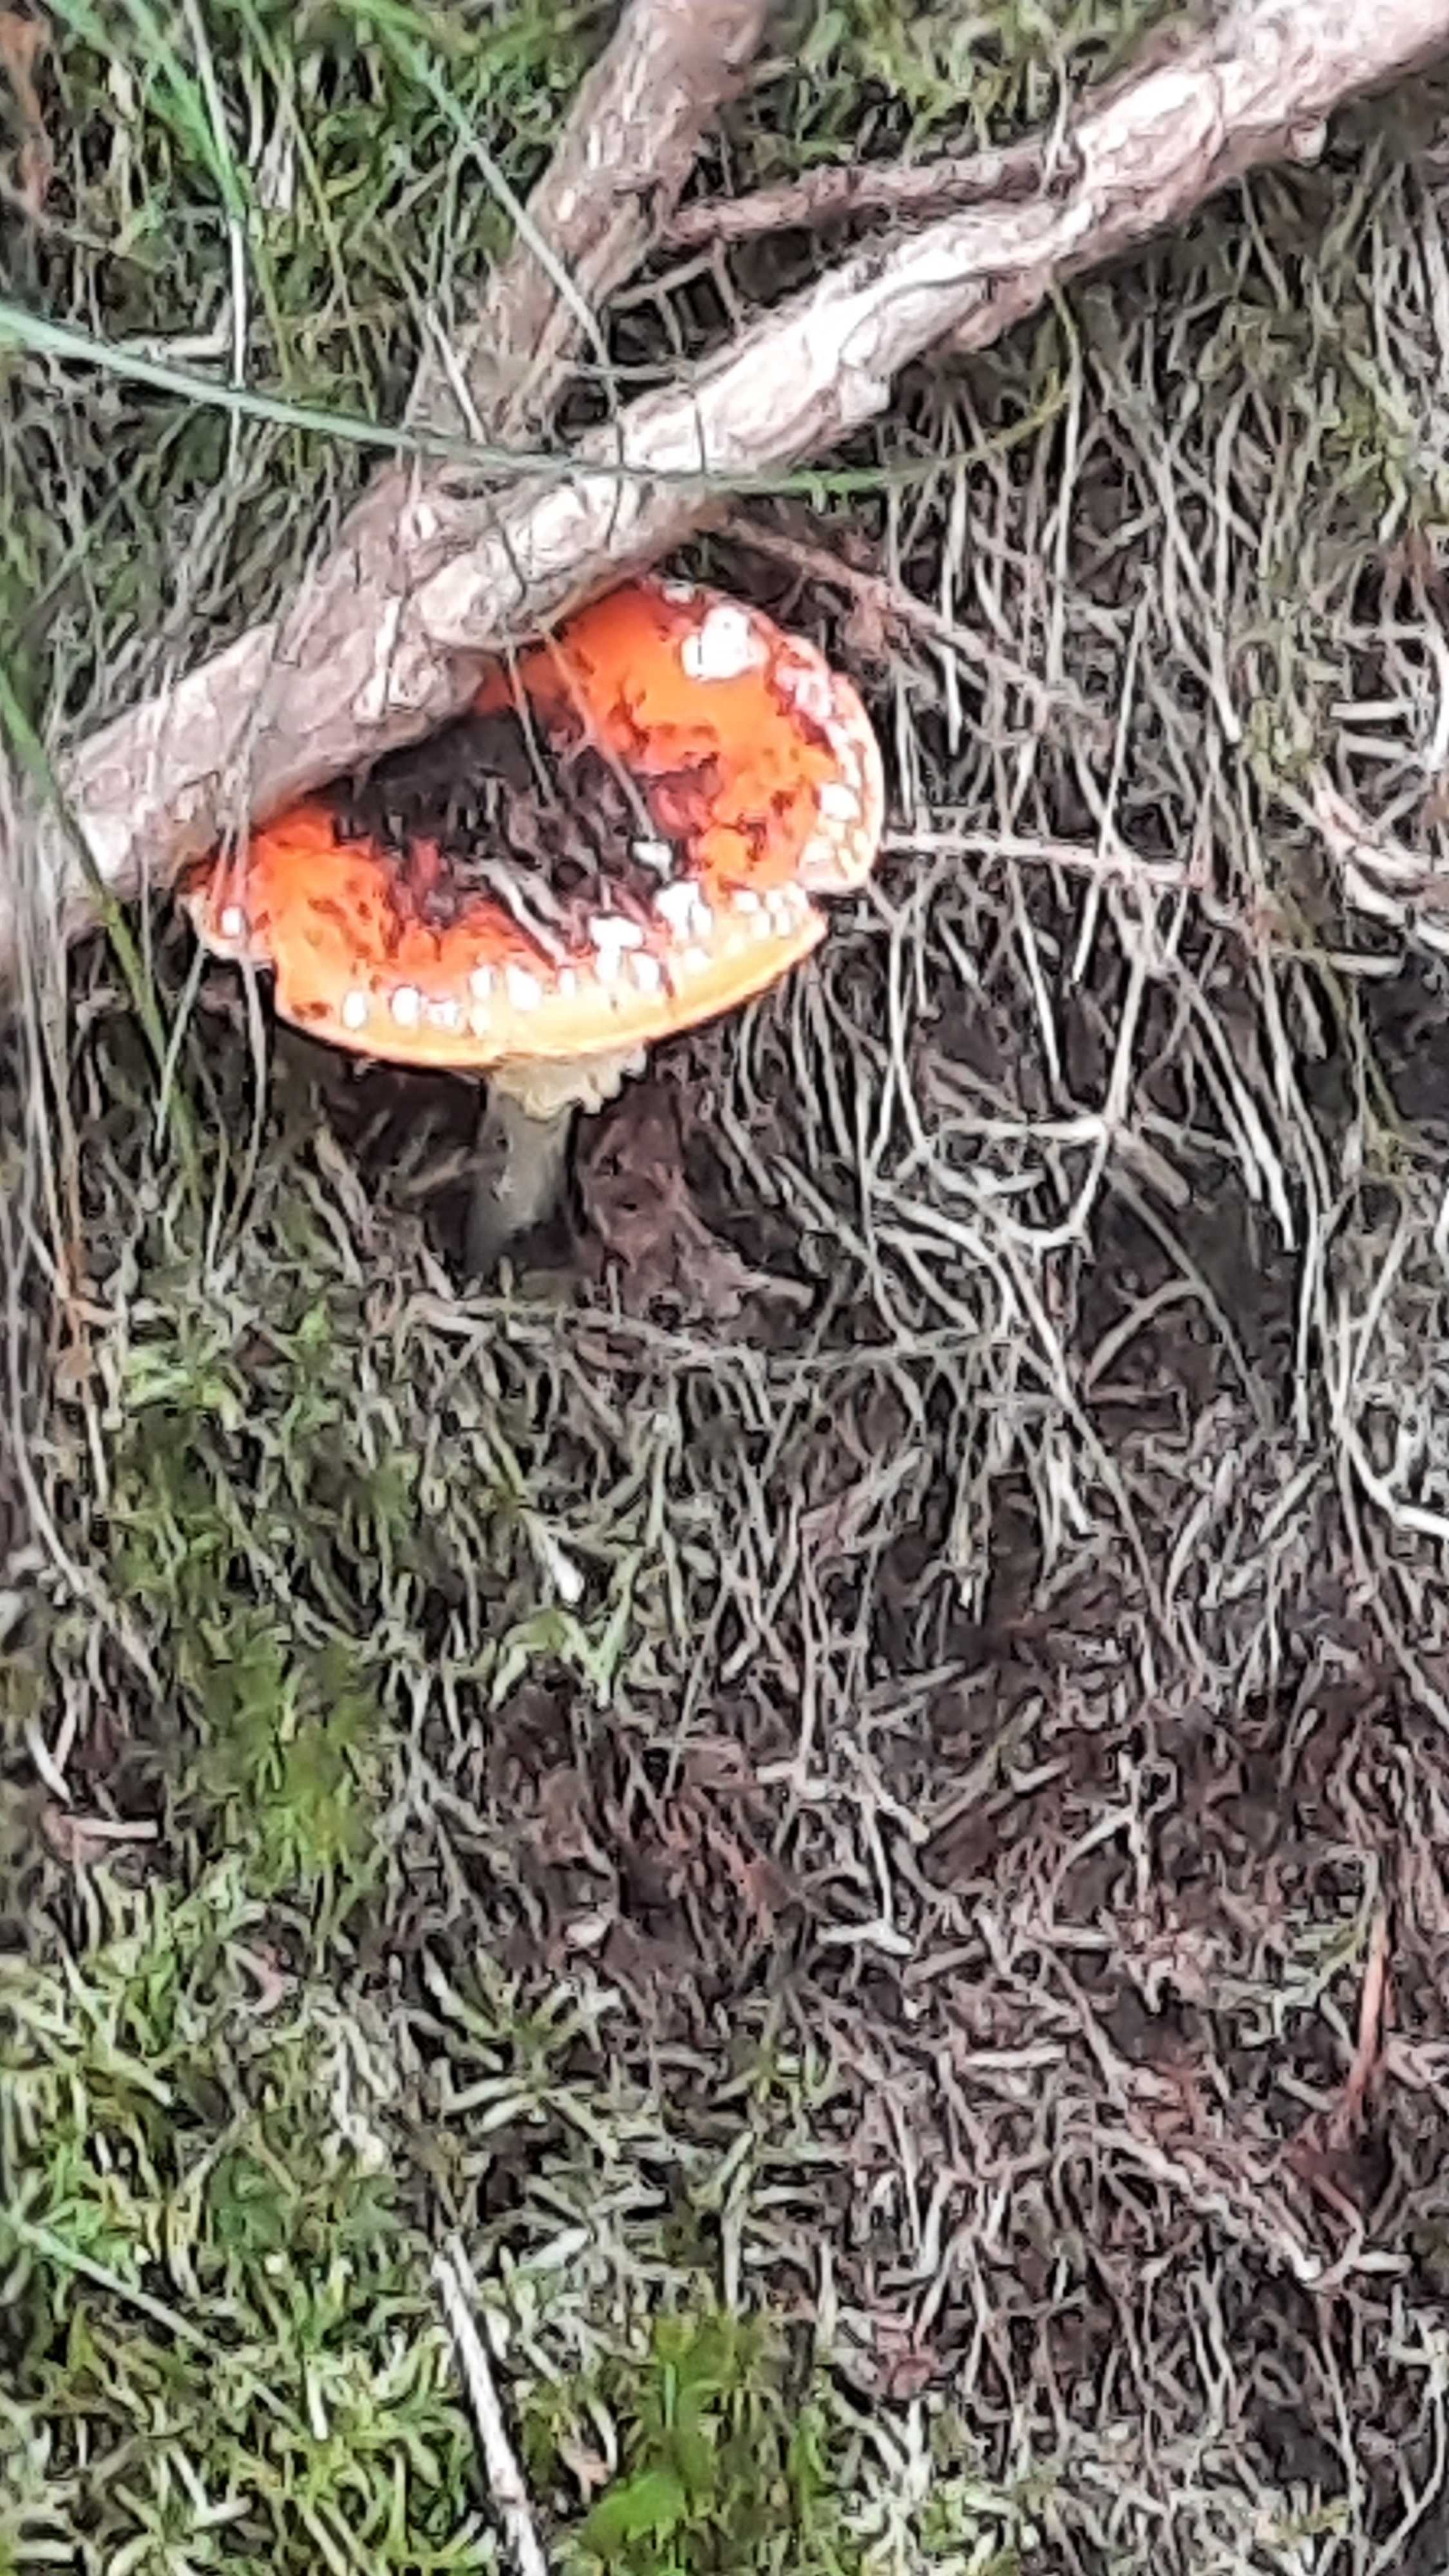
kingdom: Fungi
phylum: Basidiomycota
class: Agaricomycetes
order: Agaricales
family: Amanitaceae
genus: Amanita
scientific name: Amanita muscaria
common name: rød fluesvamp
